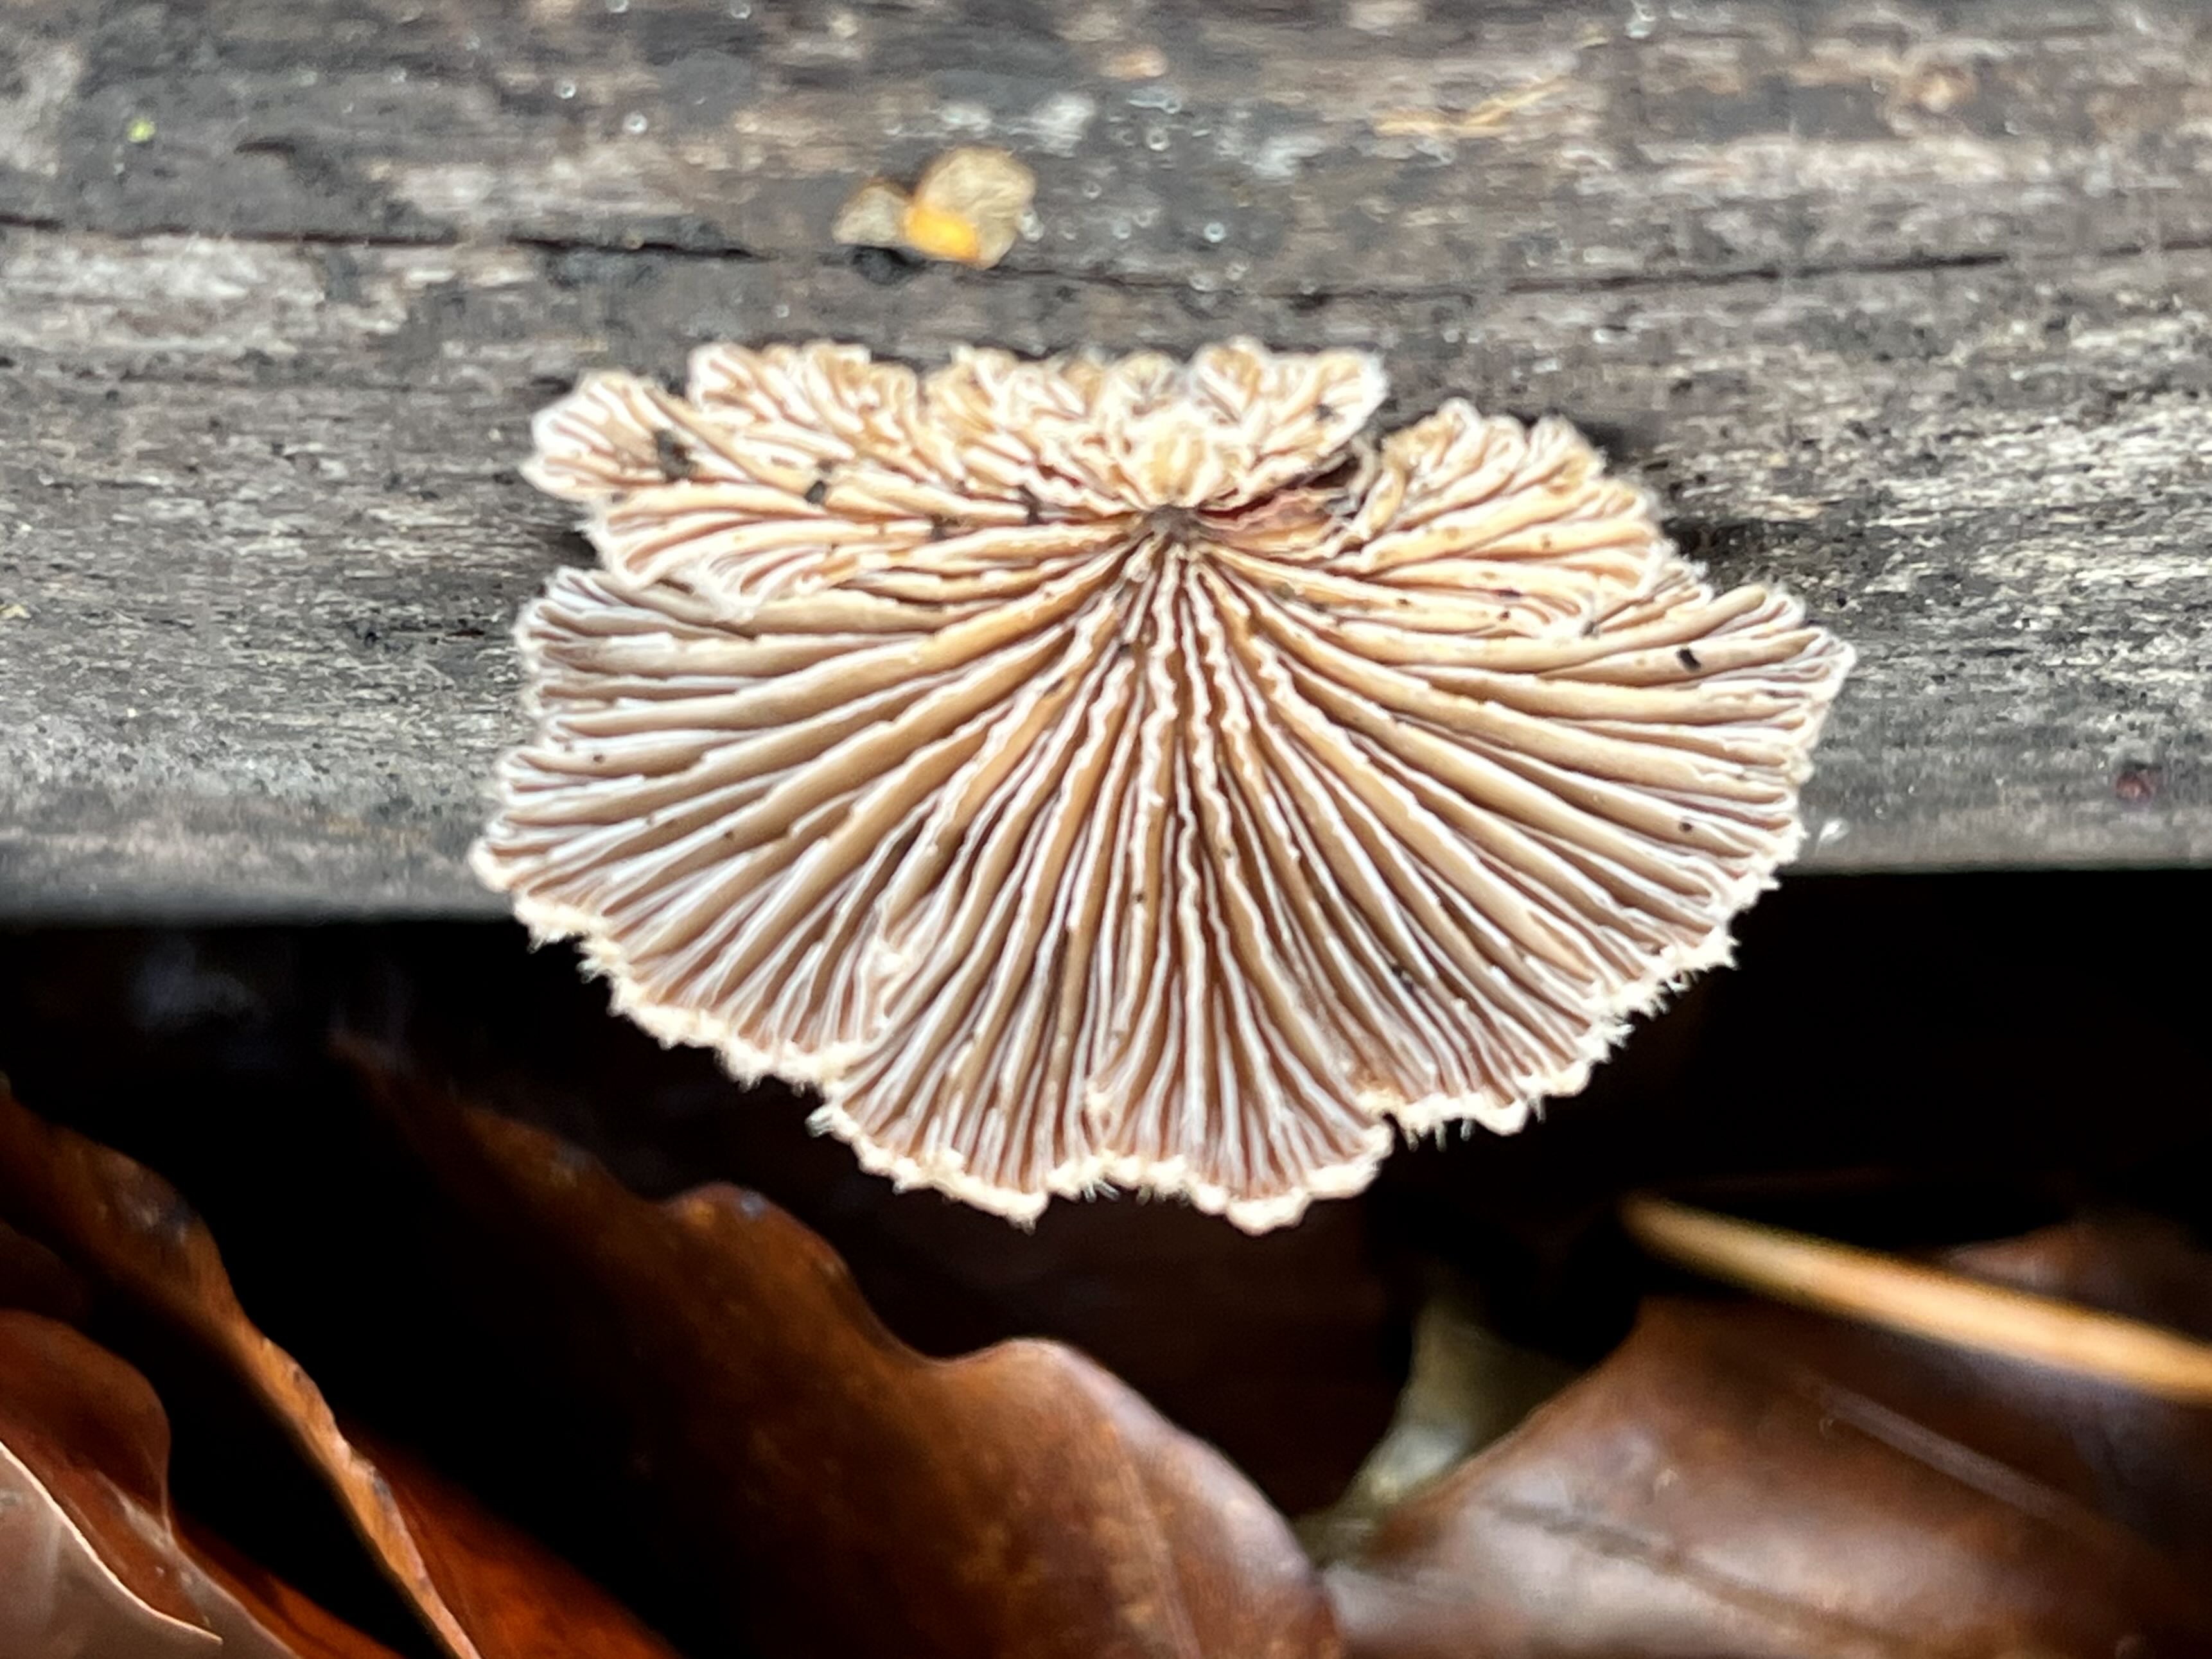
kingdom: Fungi
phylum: Basidiomycota
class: Agaricomycetes
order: Agaricales
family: Schizophyllaceae
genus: Schizophyllum
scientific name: Schizophyllum commune
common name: kløvblad
